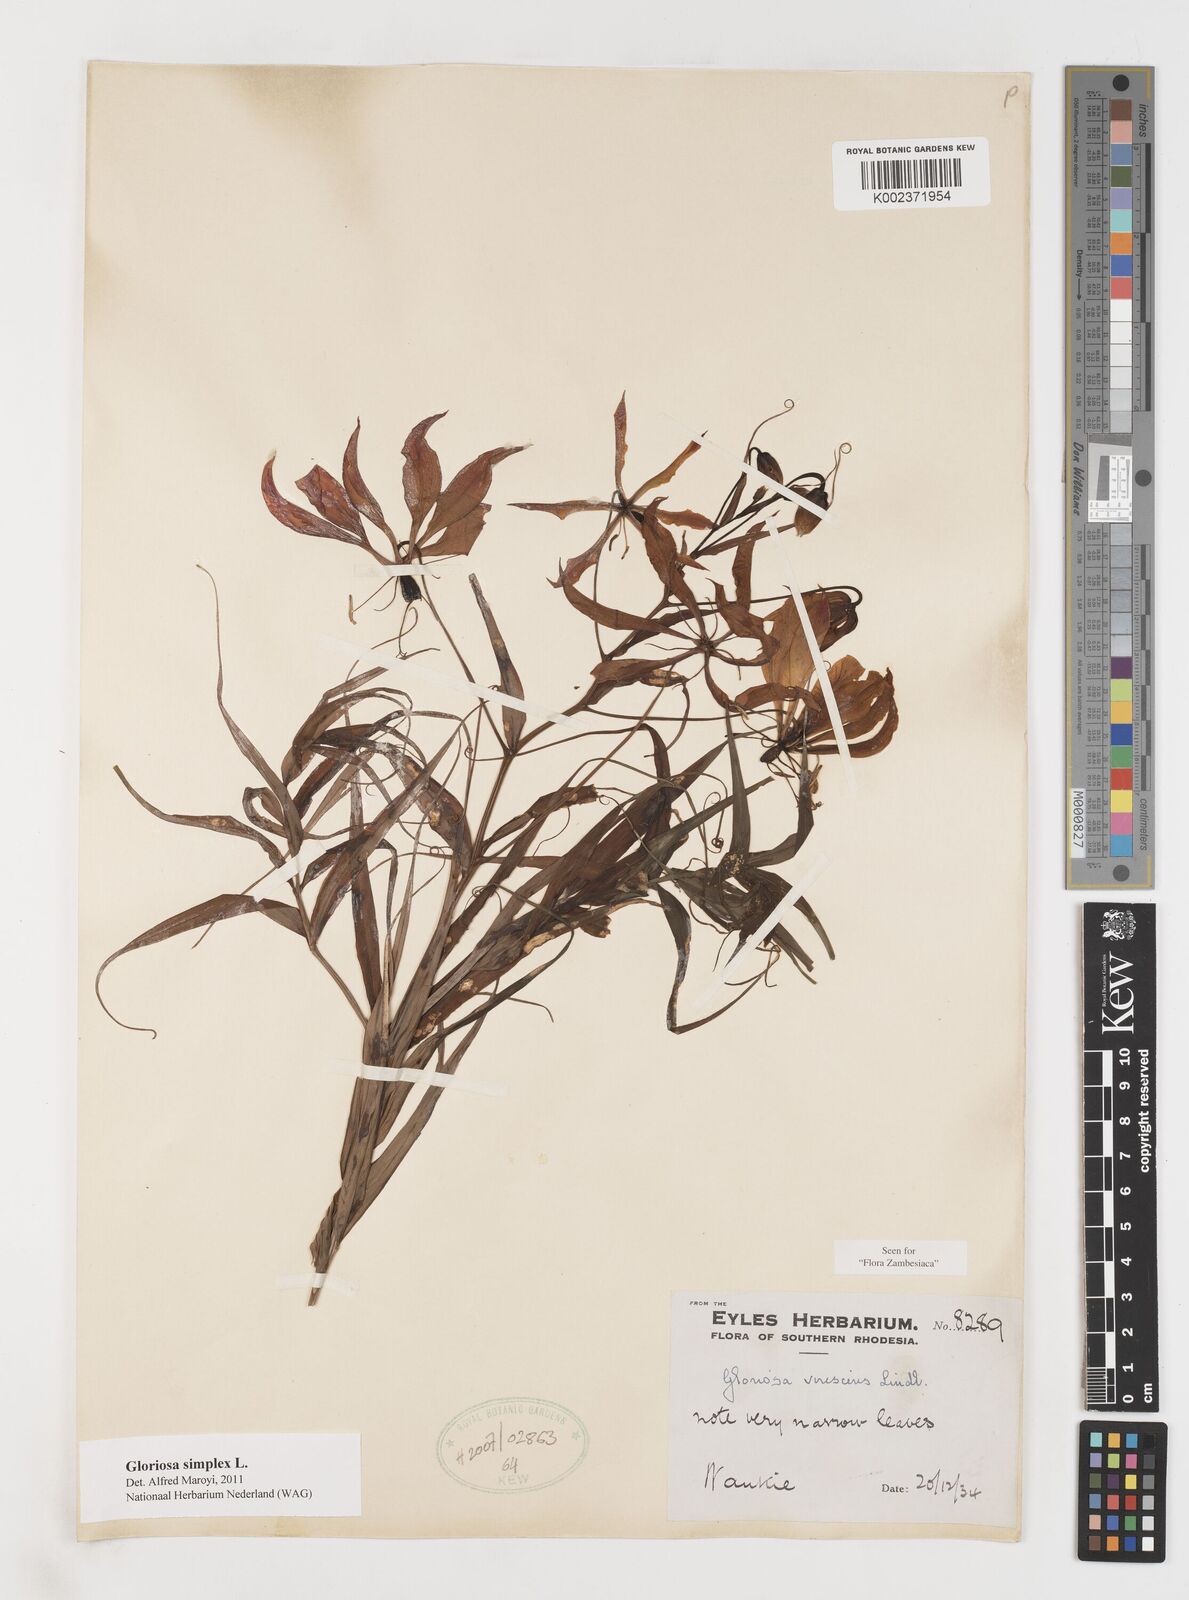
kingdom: Plantae
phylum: Tracheophyta
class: Liliopsida
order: Liliales
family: Colchicaceae
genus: Gloriosa
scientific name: Gloriosa simplex
